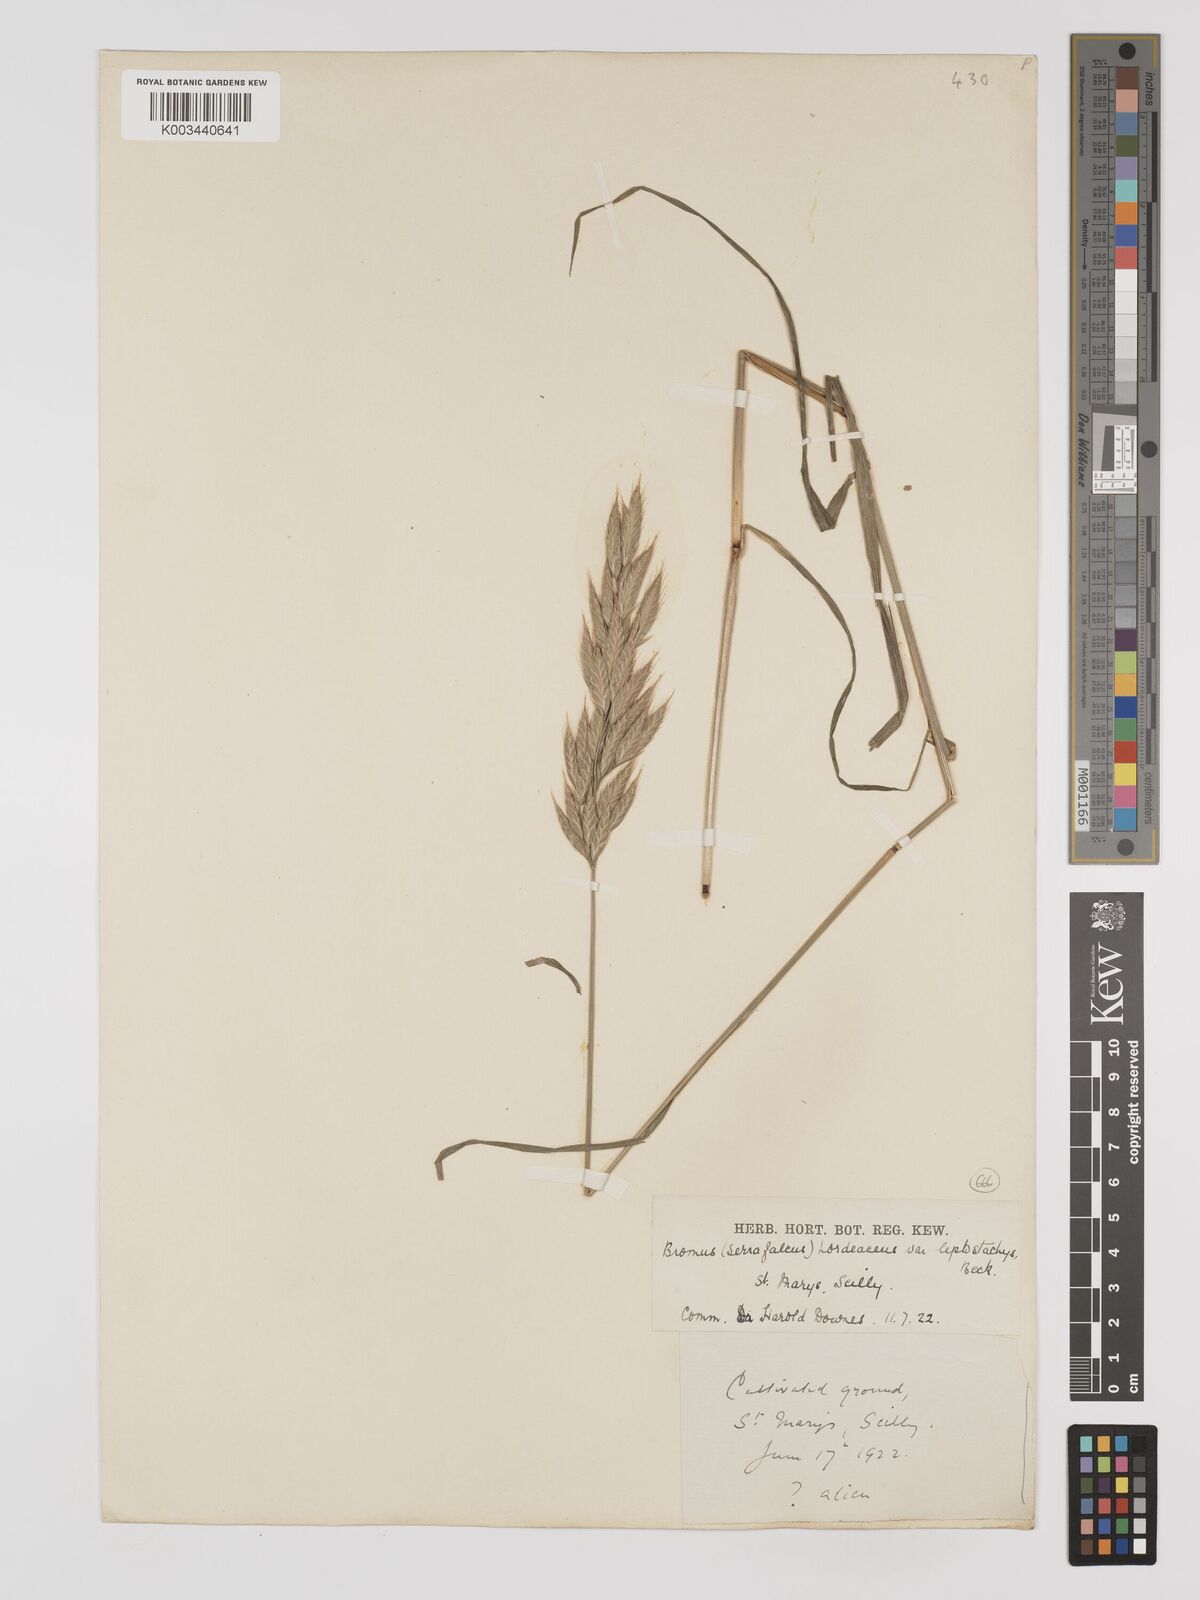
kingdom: Plantae
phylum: Tracheophyta
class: Liliopsida
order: Poales
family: Poaceae
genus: Bromus
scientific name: Bromus hordeaceus
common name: Soft brome
